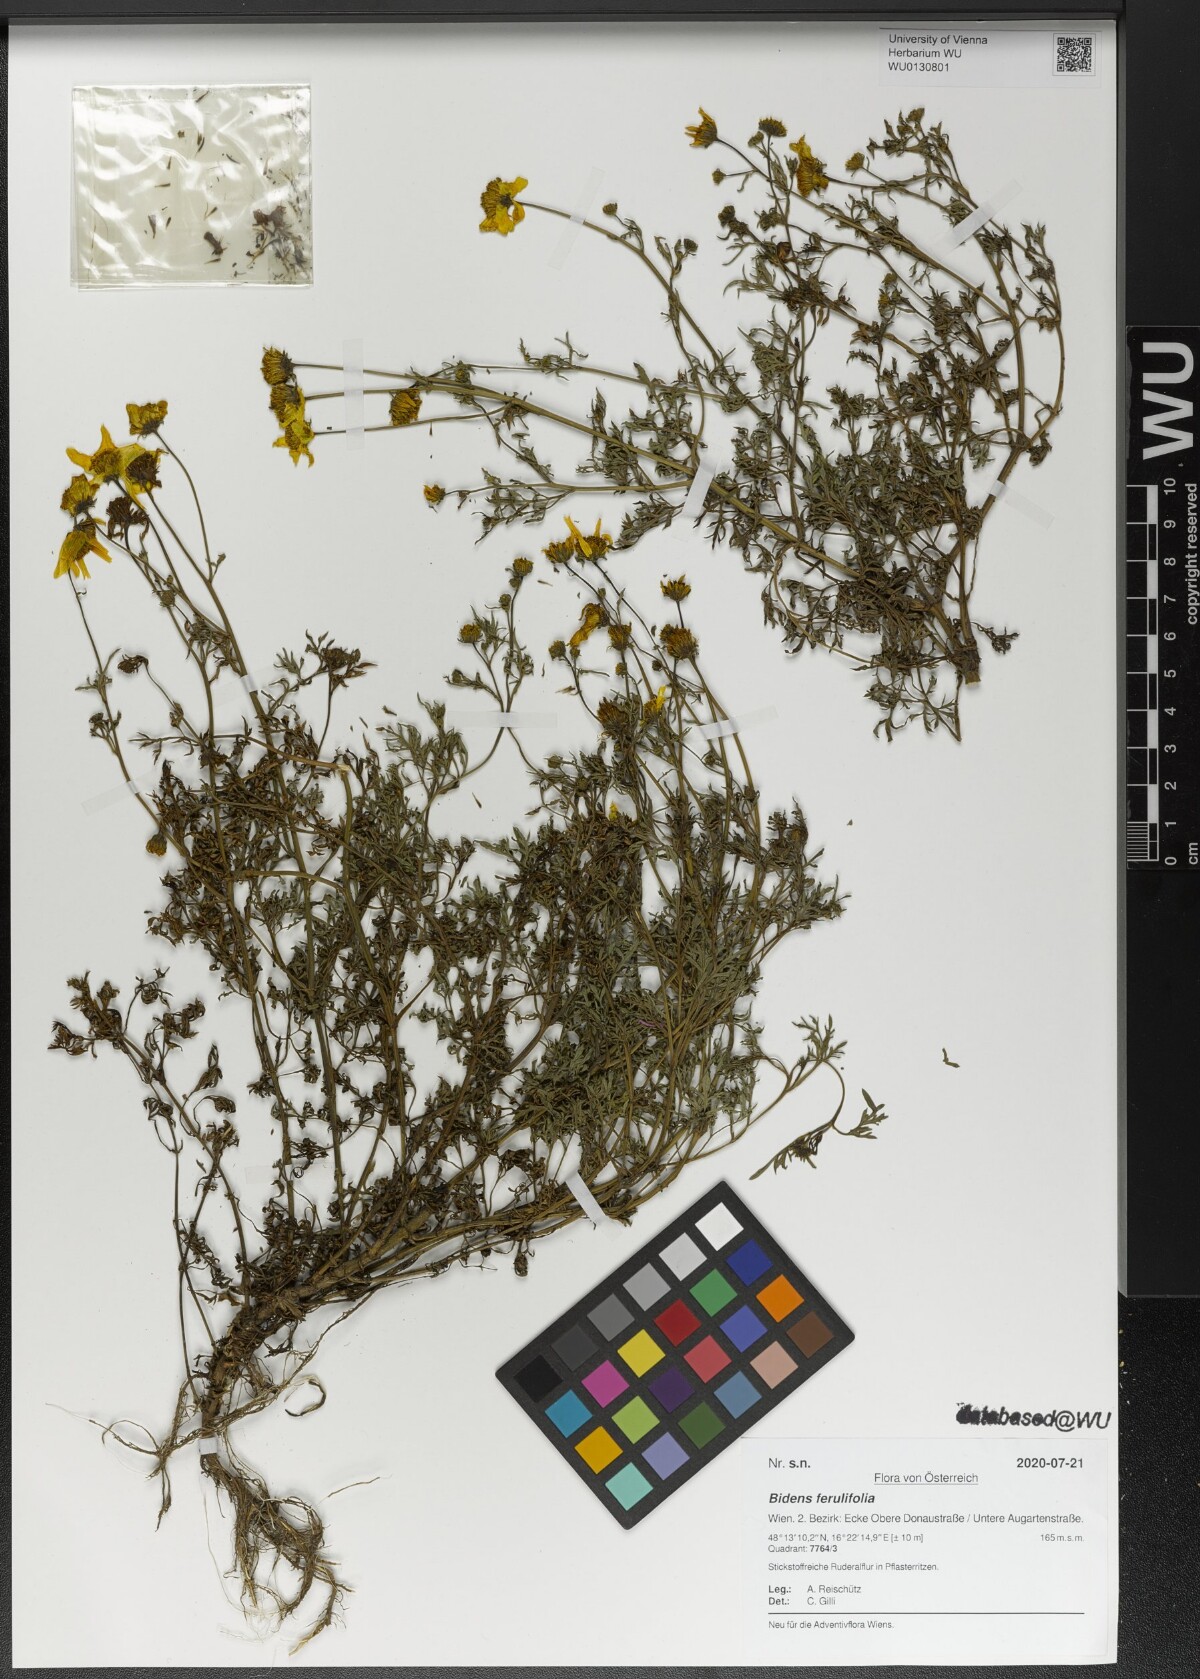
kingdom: Plantae
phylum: Tracheophyta
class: Magnoliopsida
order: Asterales
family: Asteraceae
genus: Bidens
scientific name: Bidens aurea
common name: Arizona beggar-ticks
